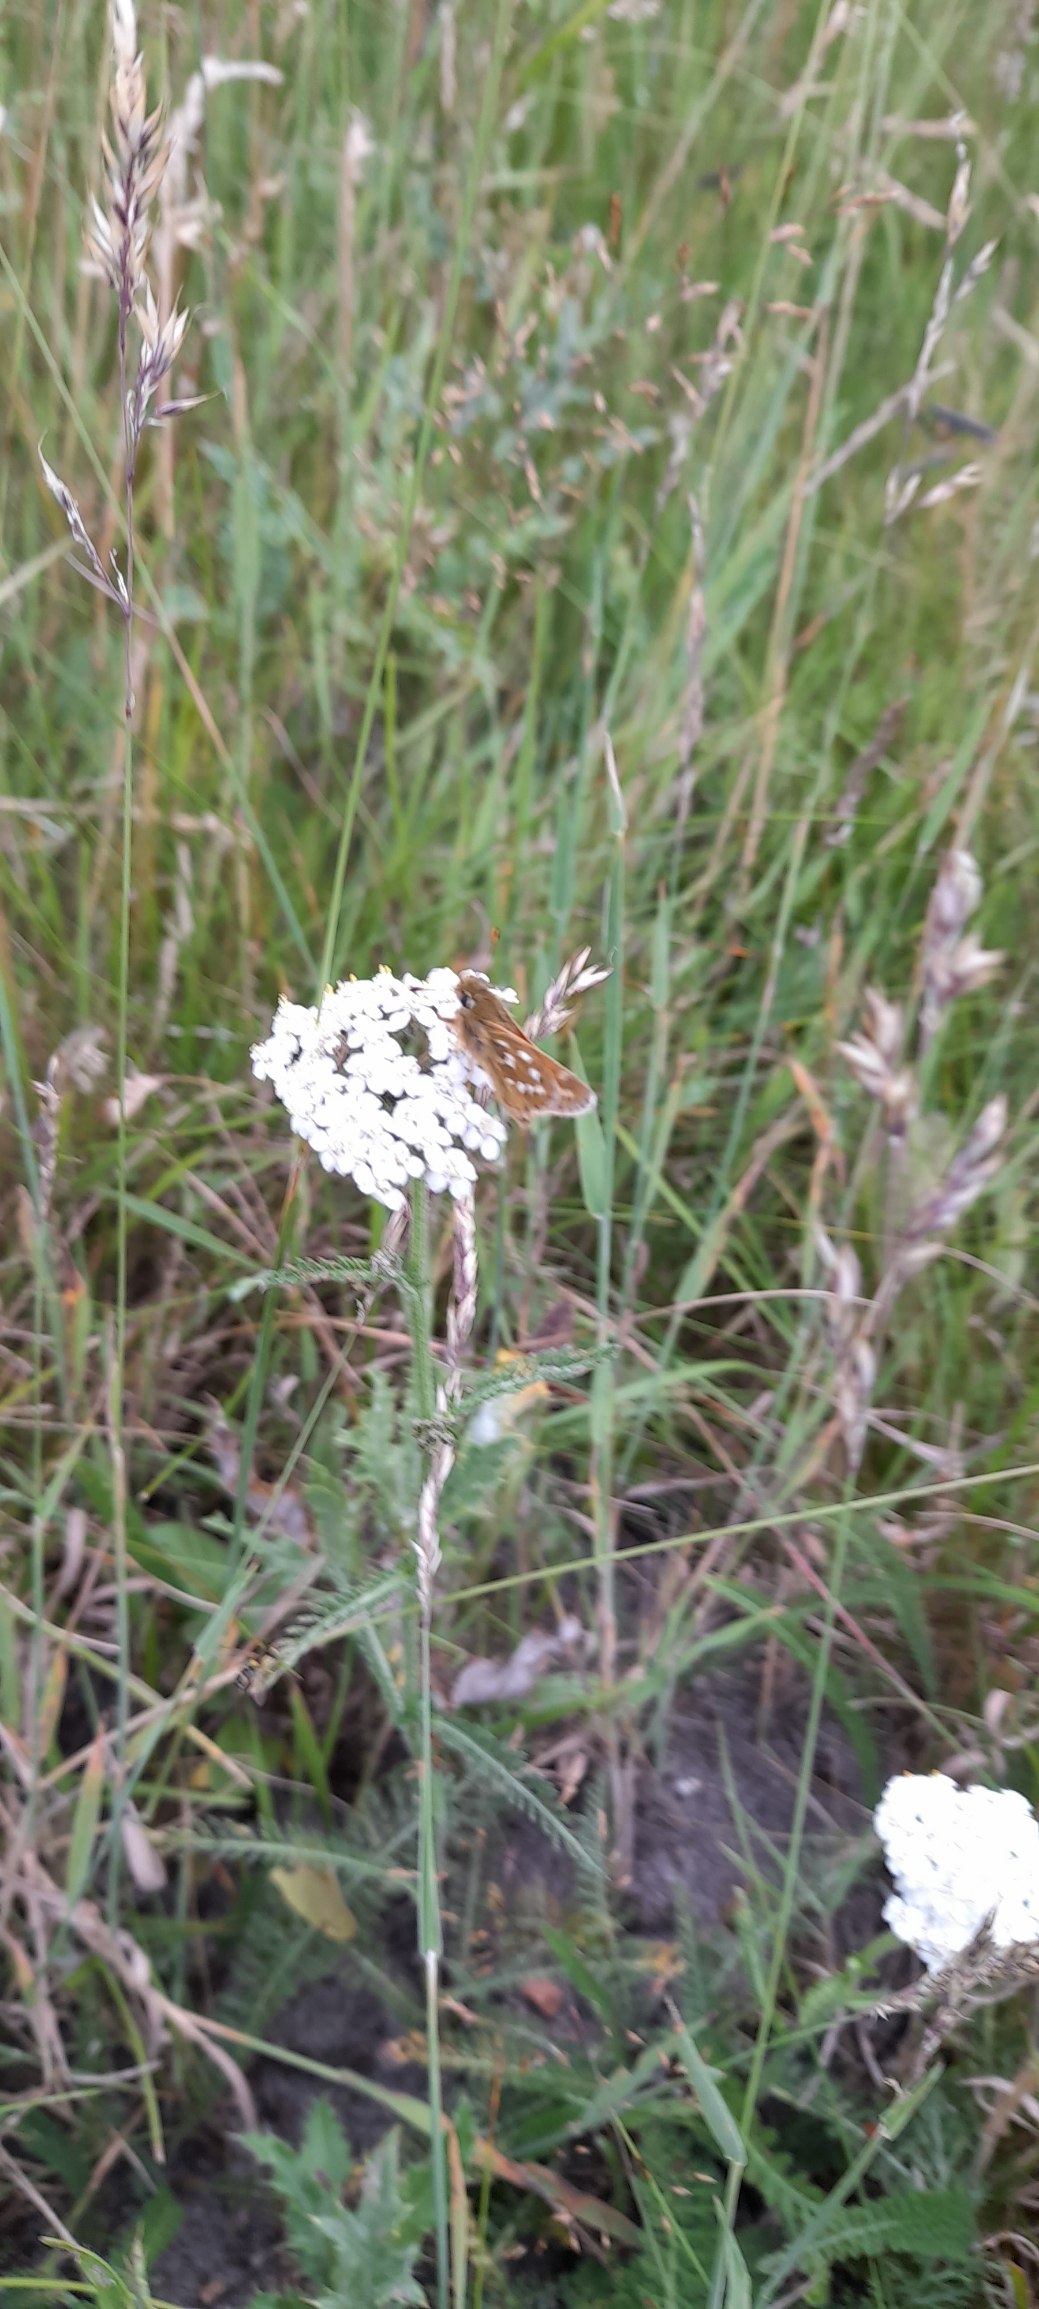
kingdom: Animalia
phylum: Arthropoda
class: Insecta
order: Lepidoptera
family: Hesperiidae
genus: Hesperia
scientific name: Hesperia comma
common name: Kommabredpande
